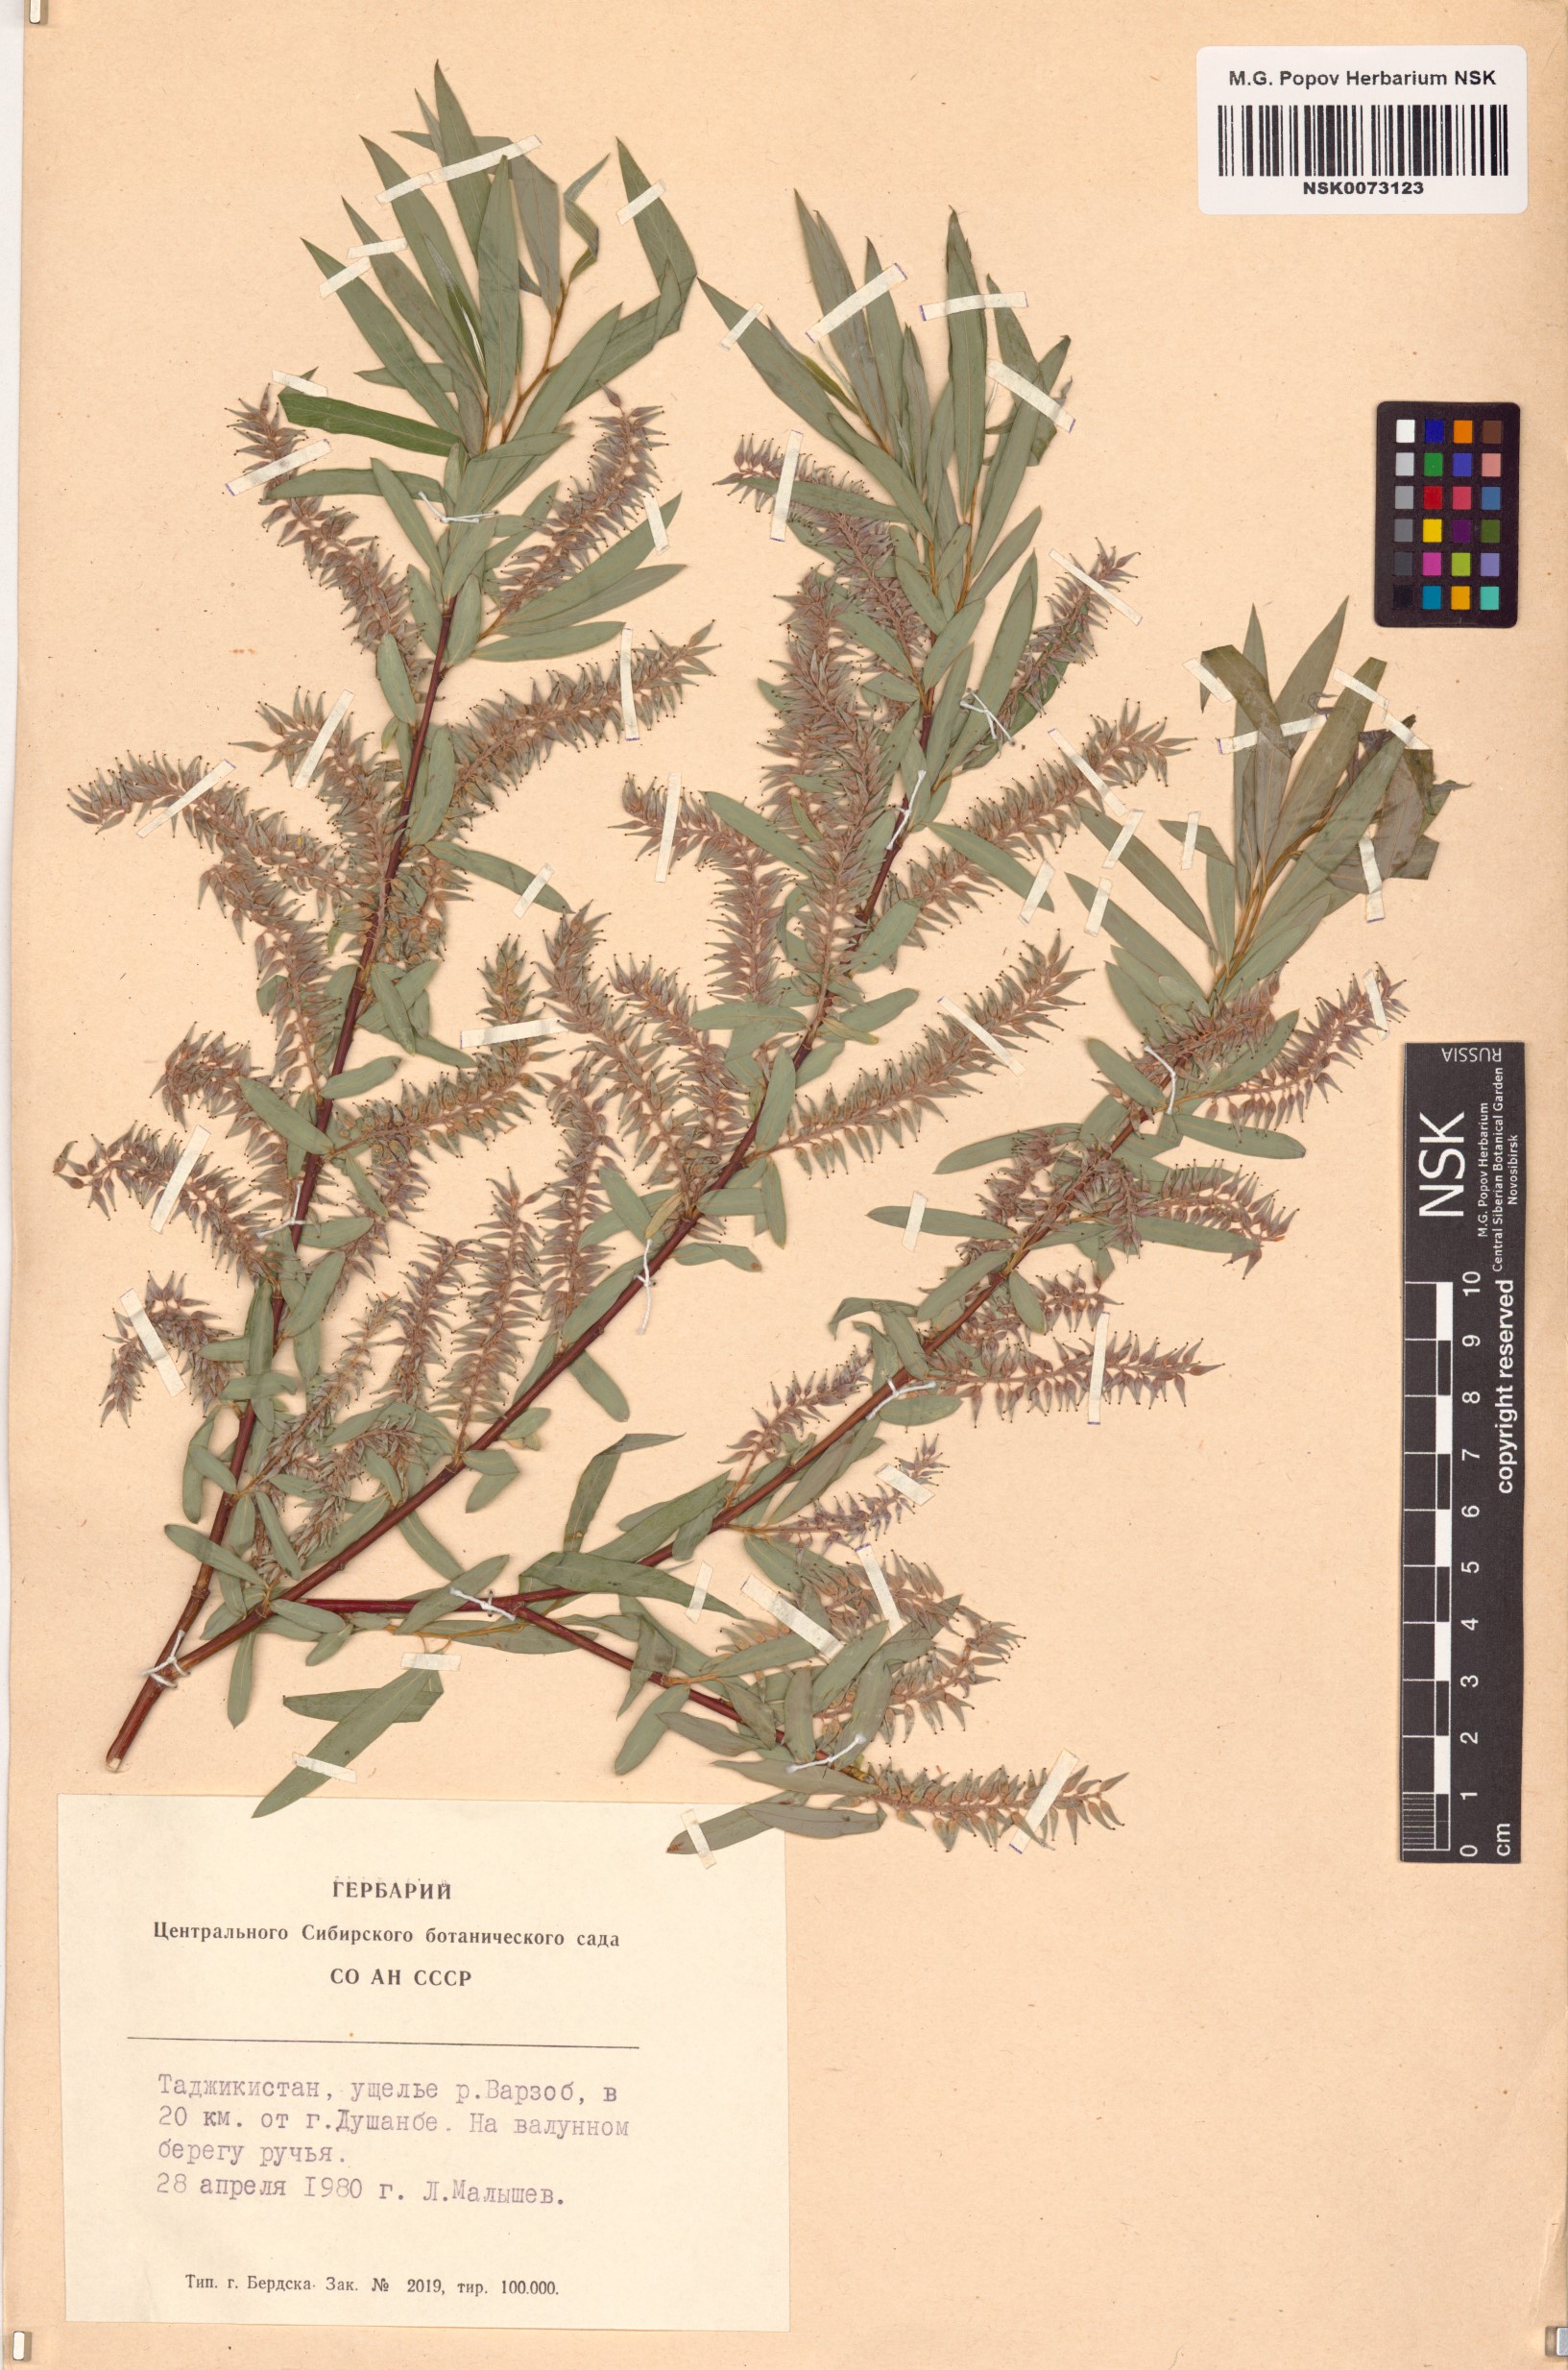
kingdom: Plantae
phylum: Tracheophyta
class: Magnoliopsida
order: Malpighiales
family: Salicaceae
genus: Salix
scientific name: Salix
